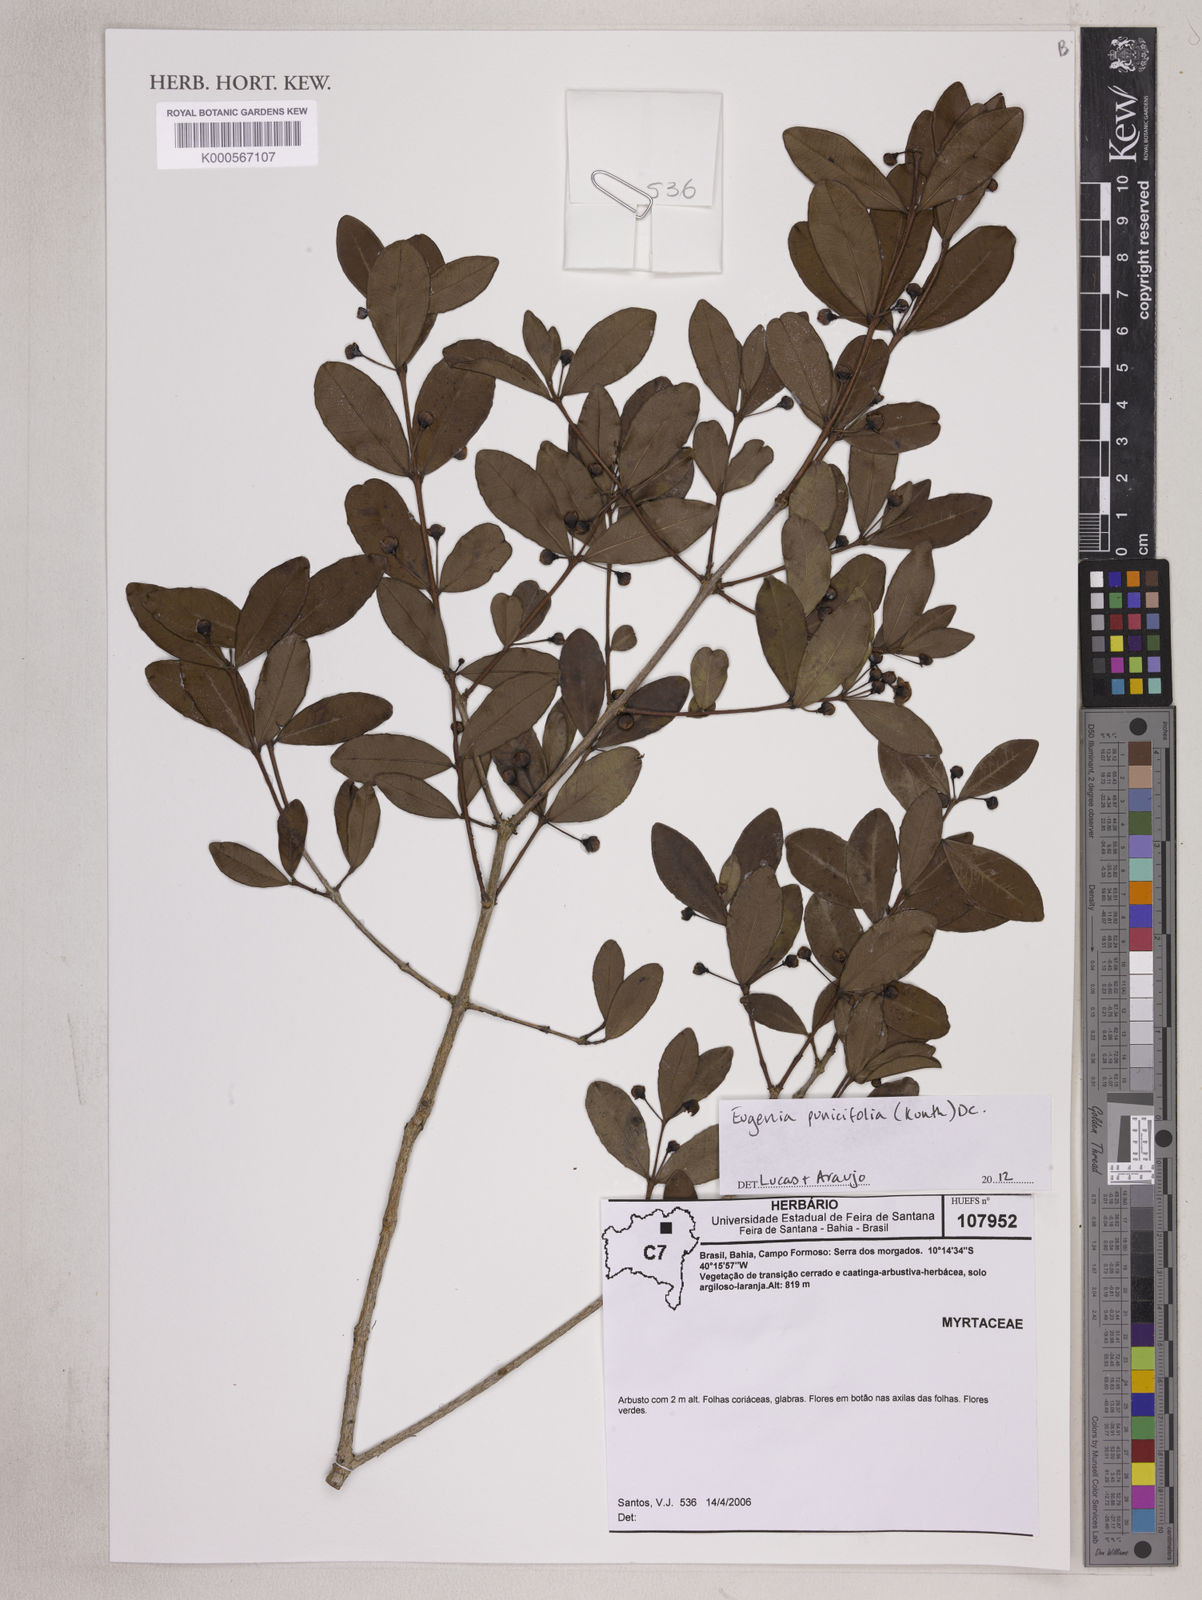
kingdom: Plantae
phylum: Tracheophyta
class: Magnoliopsida
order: Myrtales
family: Myrtaceae
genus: Eugenia
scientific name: Eugenia punicifolia
